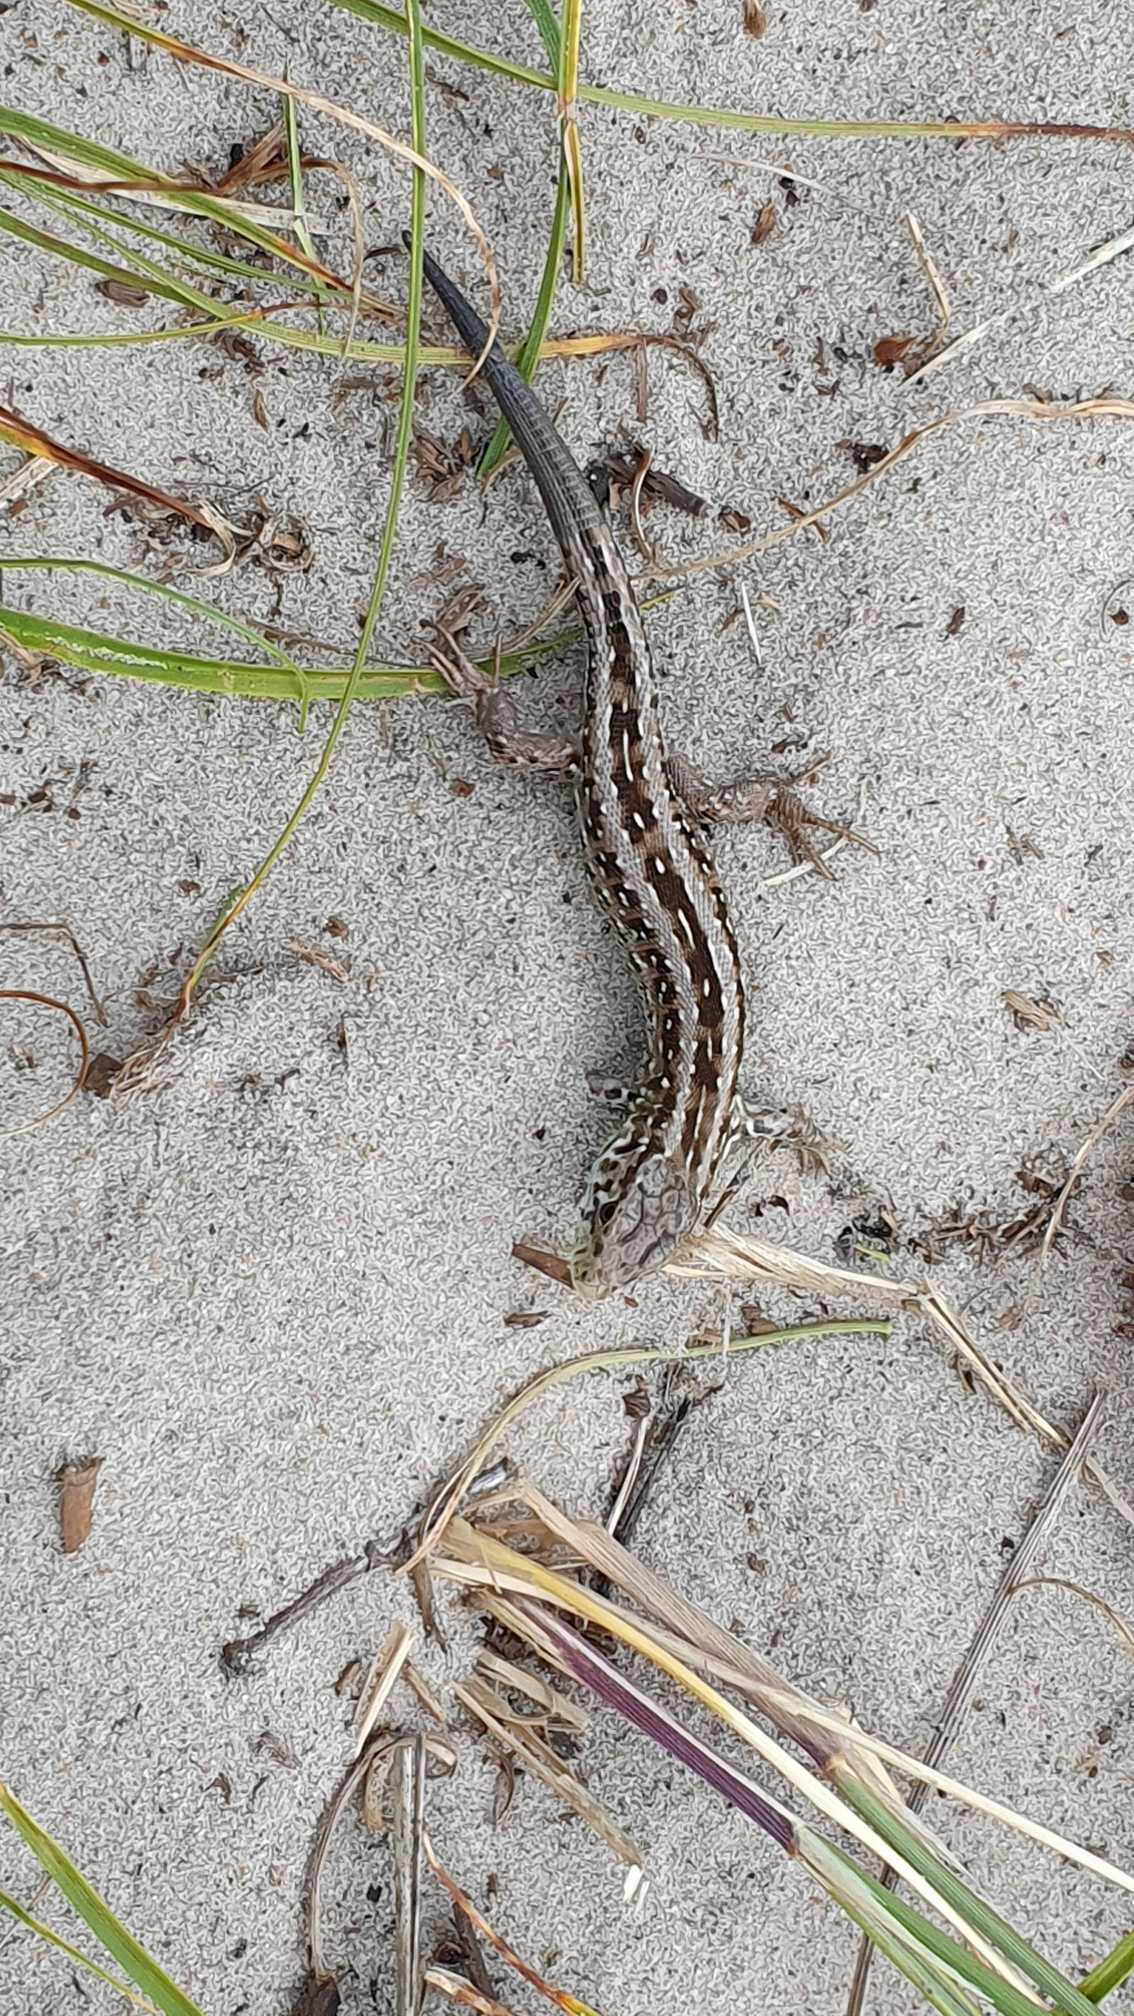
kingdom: Animalia
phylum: Chordata
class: Squamata
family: Lacertidae
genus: Lacerta
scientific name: Lacerta agilis
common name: Markfirben
